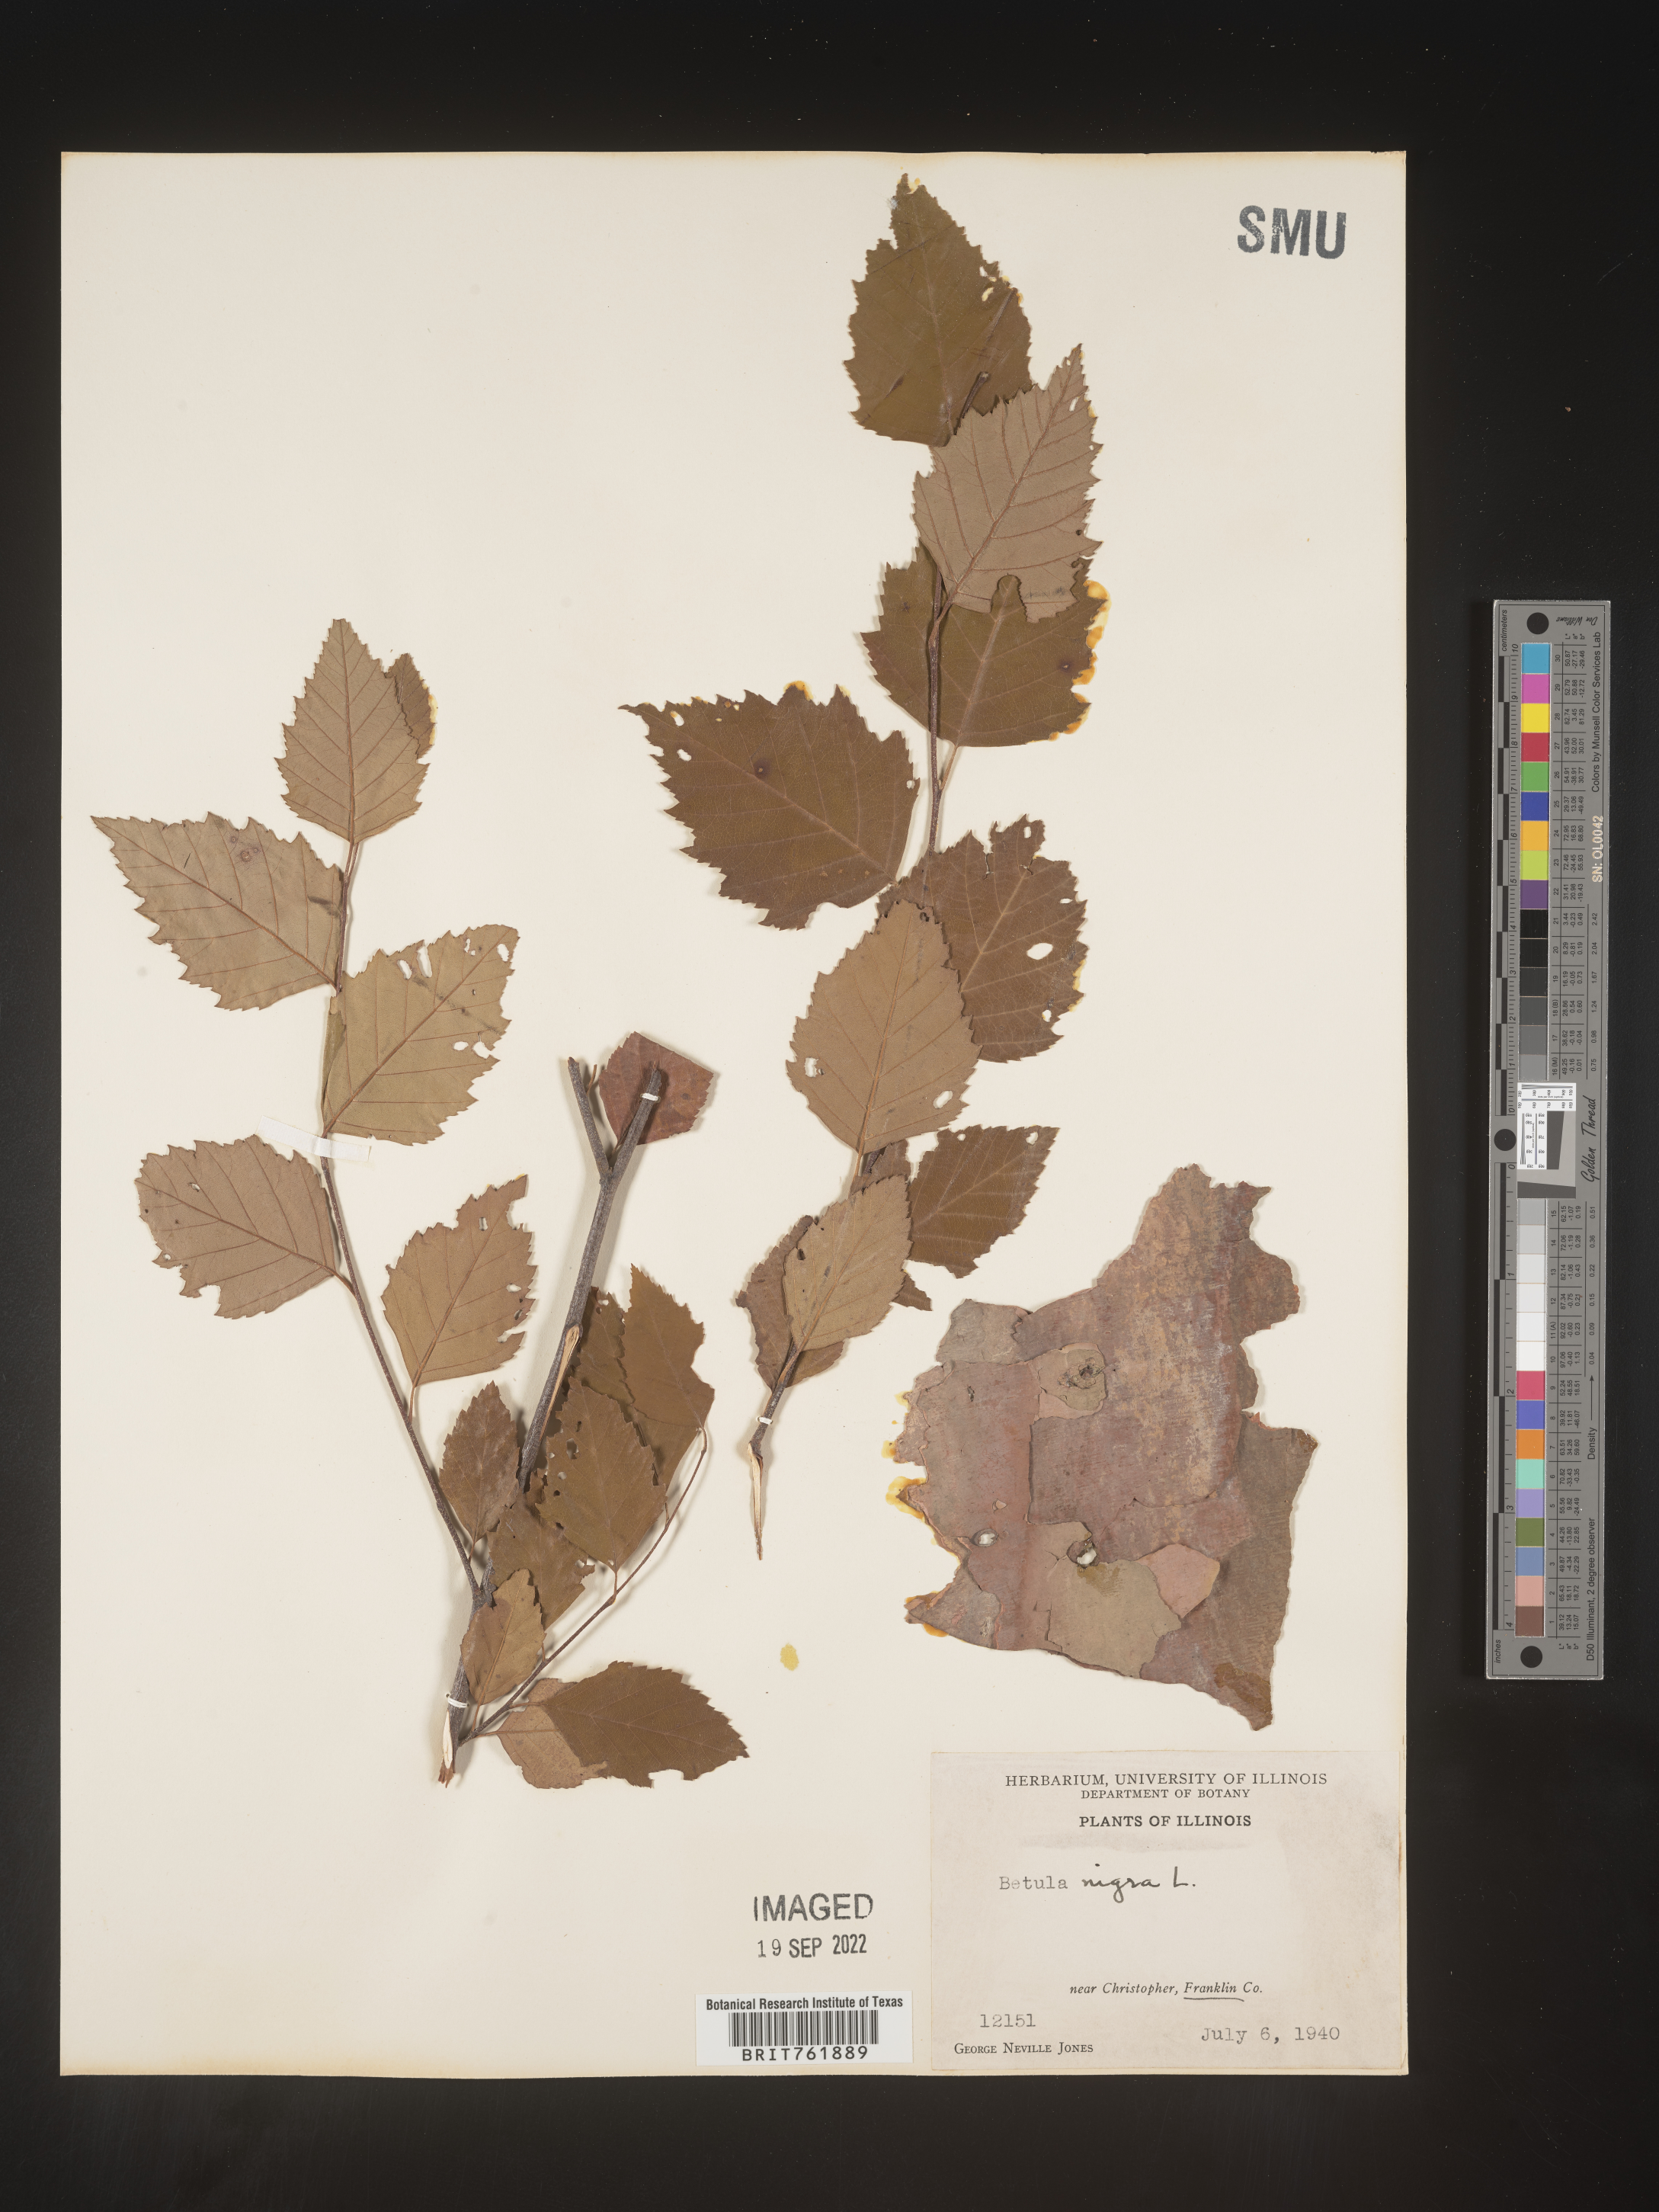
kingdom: Plantae
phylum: Tracheophyta
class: Magnoliopsida
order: Fagales
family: Betulaceae
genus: Betula
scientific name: Betula nigra
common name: Black birch
